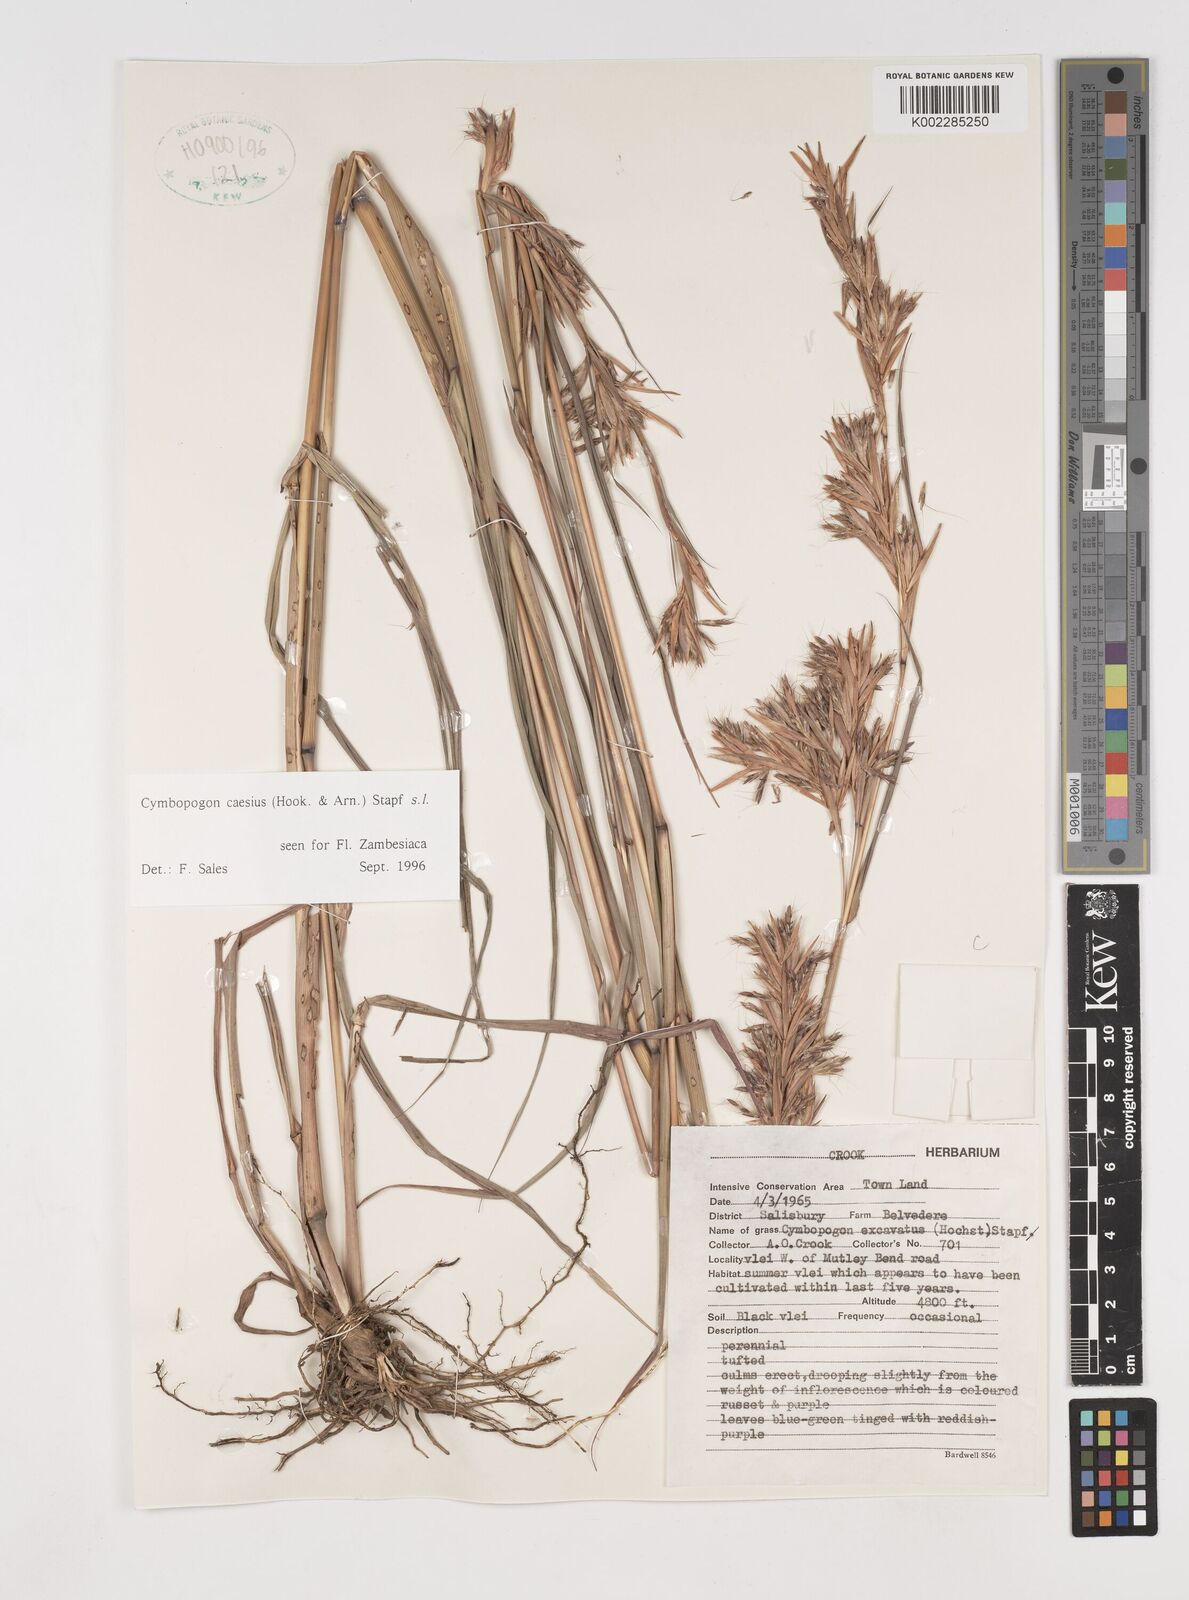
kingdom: Plantae
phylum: Tracheophyta
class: Liliopsida
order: Poales
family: Poaceae
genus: Cymbopogon
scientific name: Cymbopogon caesius
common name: Kachi grass
